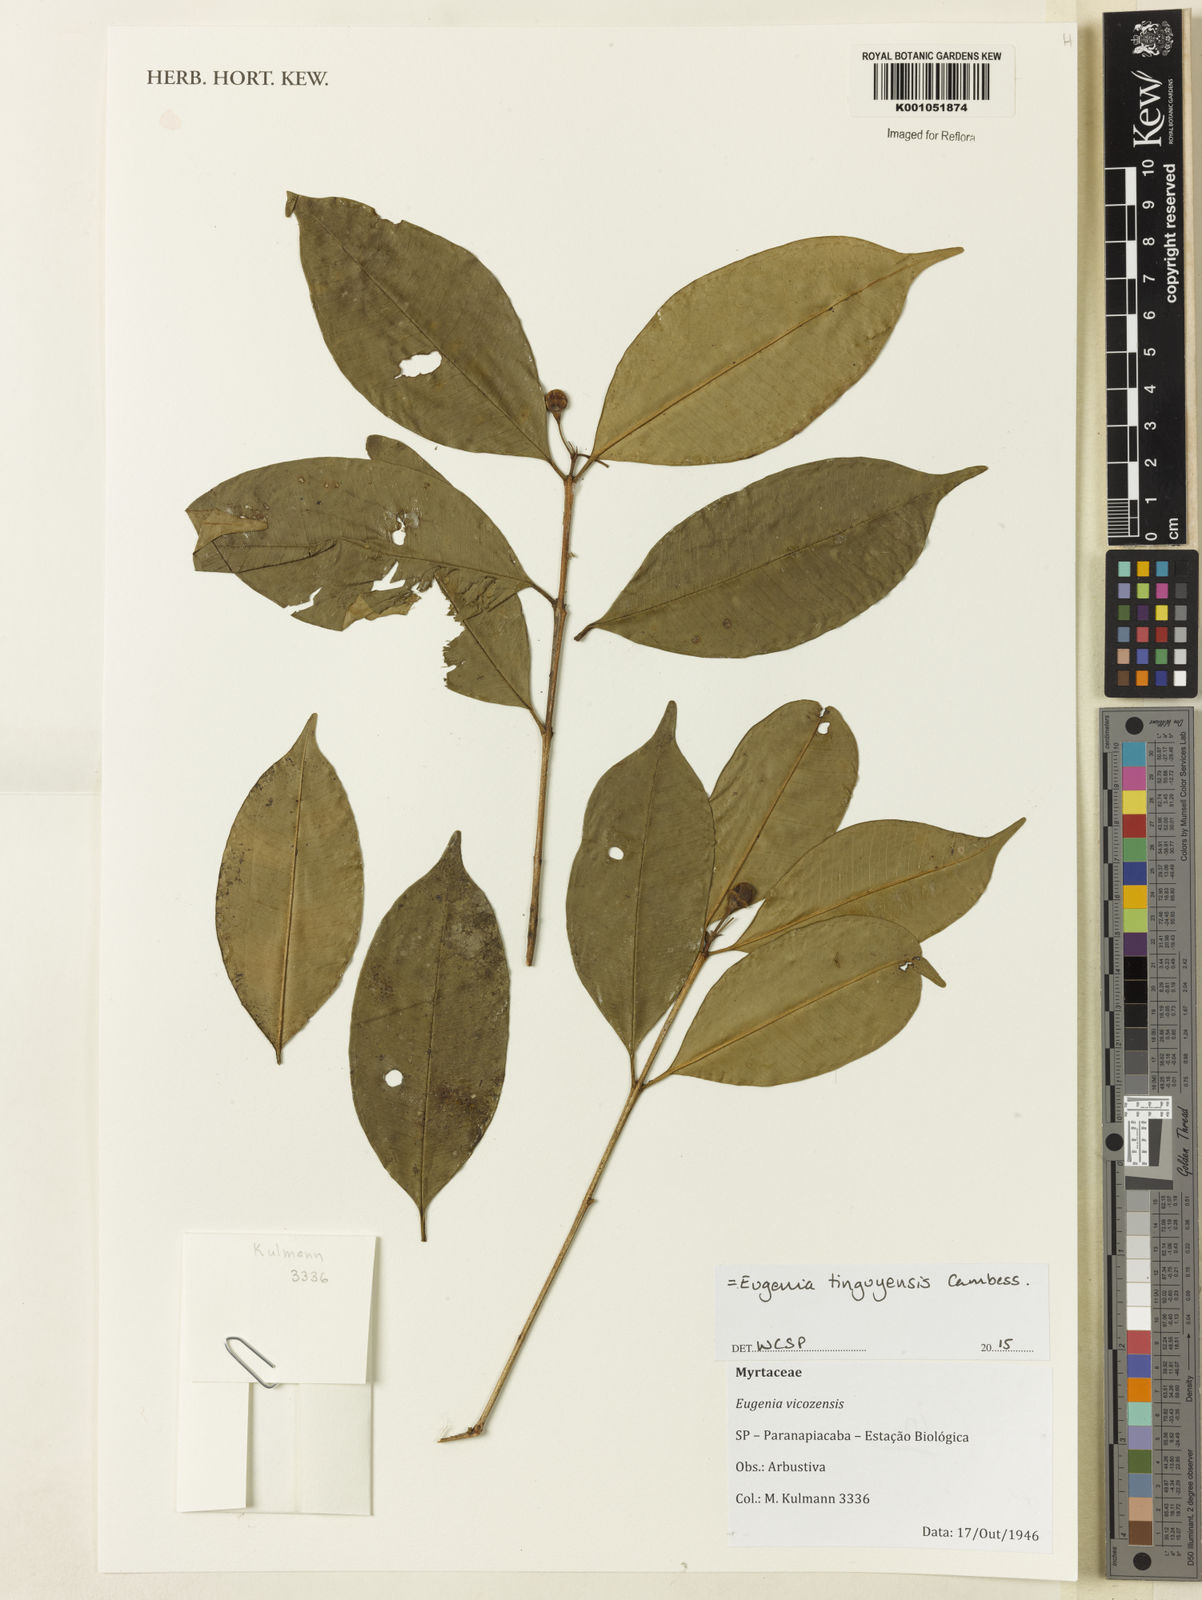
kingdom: Plantae
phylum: Tracheophyta
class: Magnoliopsida
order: Myrtales
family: Myrtaceae
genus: Eugenia
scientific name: Eugenia pisiformis
